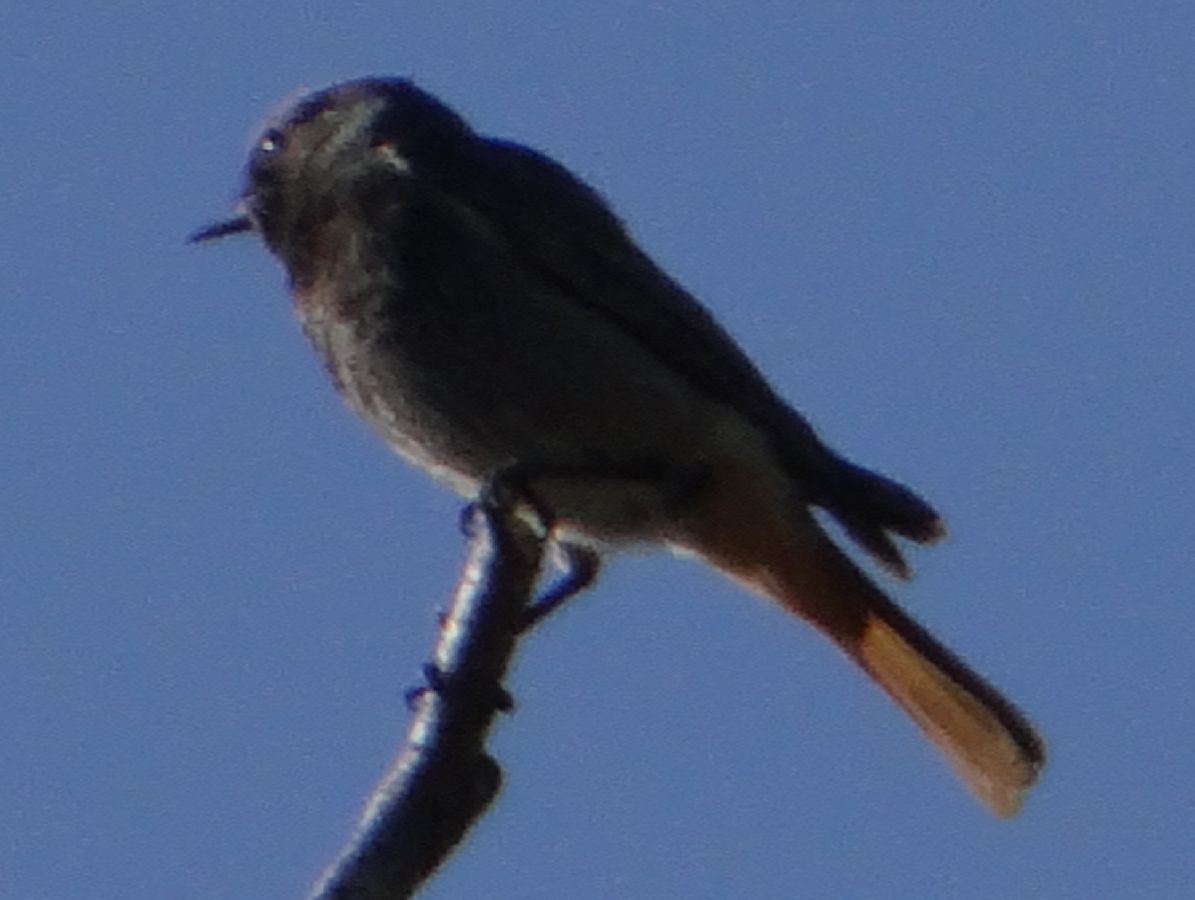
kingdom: Animalia
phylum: Chordata
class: Aves
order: Passeriformes
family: Muscicapidae
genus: Phoenicurus
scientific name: Phoenicurus ochruros
